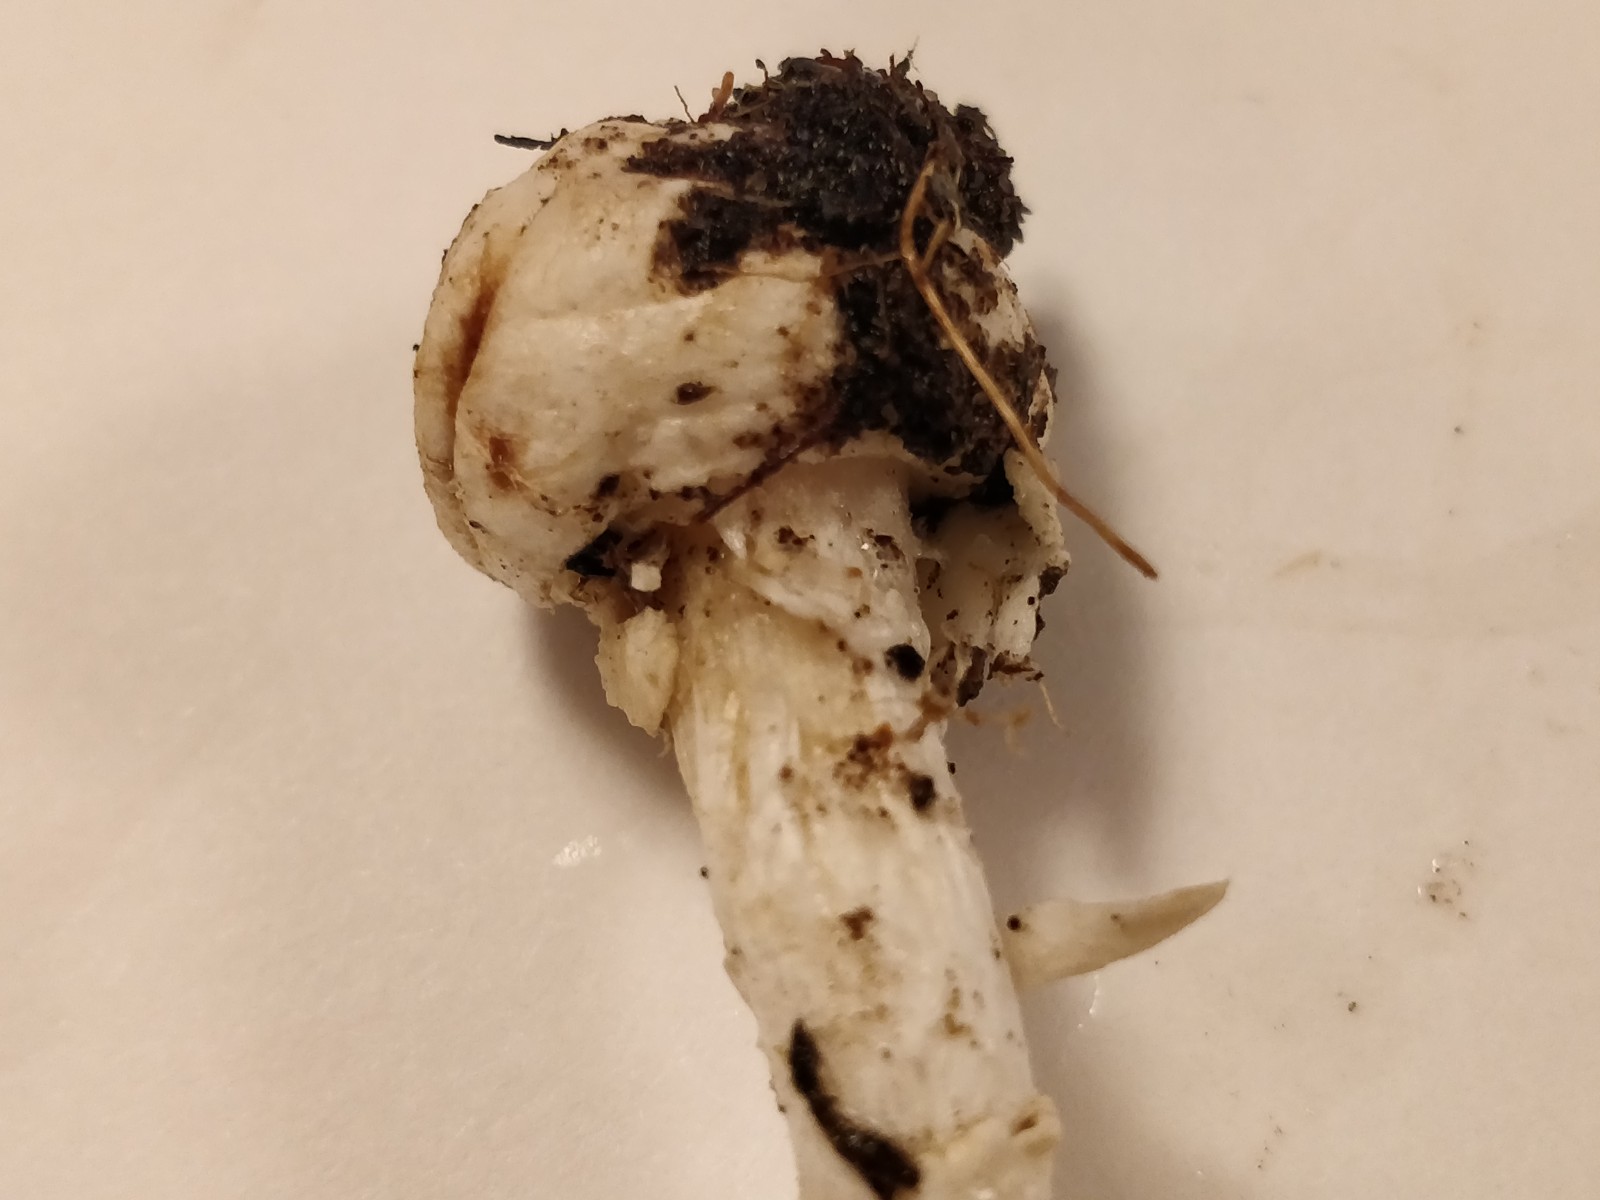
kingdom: Fungi
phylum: Basidiomycota
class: Agaricomycetes
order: Agaricales
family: Amanitaceae
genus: Amanita
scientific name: Amanita citrina
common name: False death-cap
